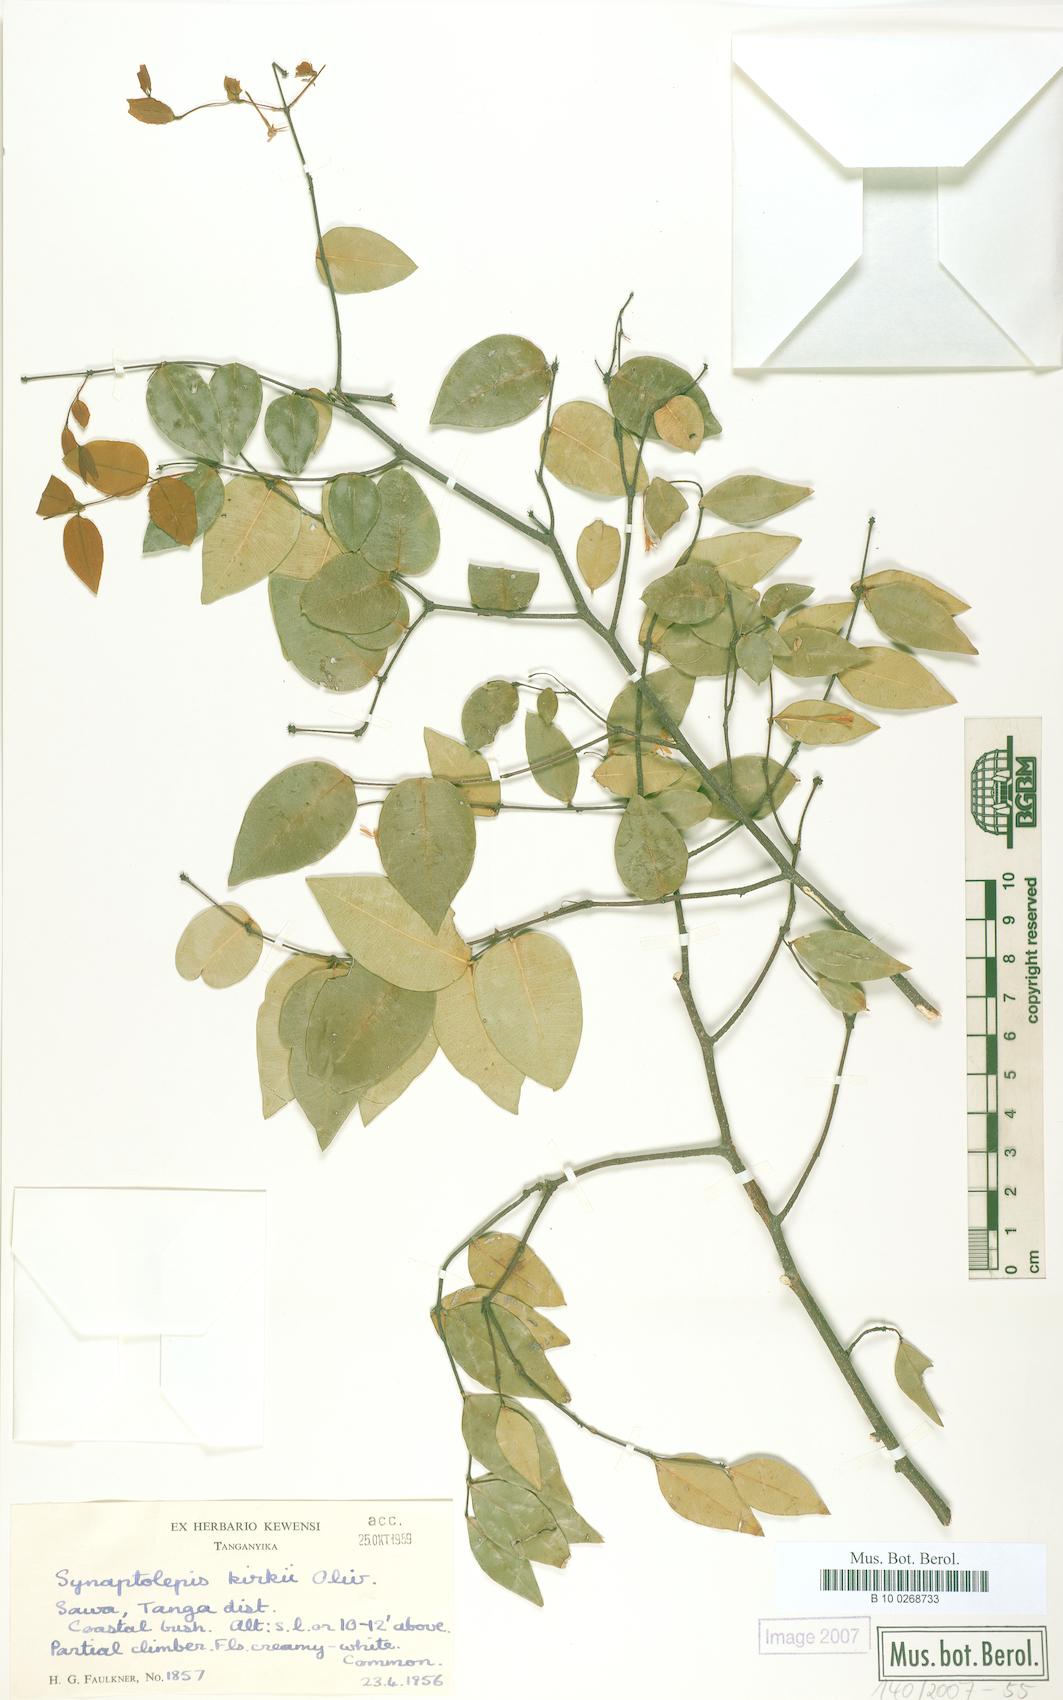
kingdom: Plantae
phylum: Tracheophyta
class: Magnoliopsida
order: Malvales
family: Thymelaeaceae
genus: Synaptolepis
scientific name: Synaptolepis kirkii
